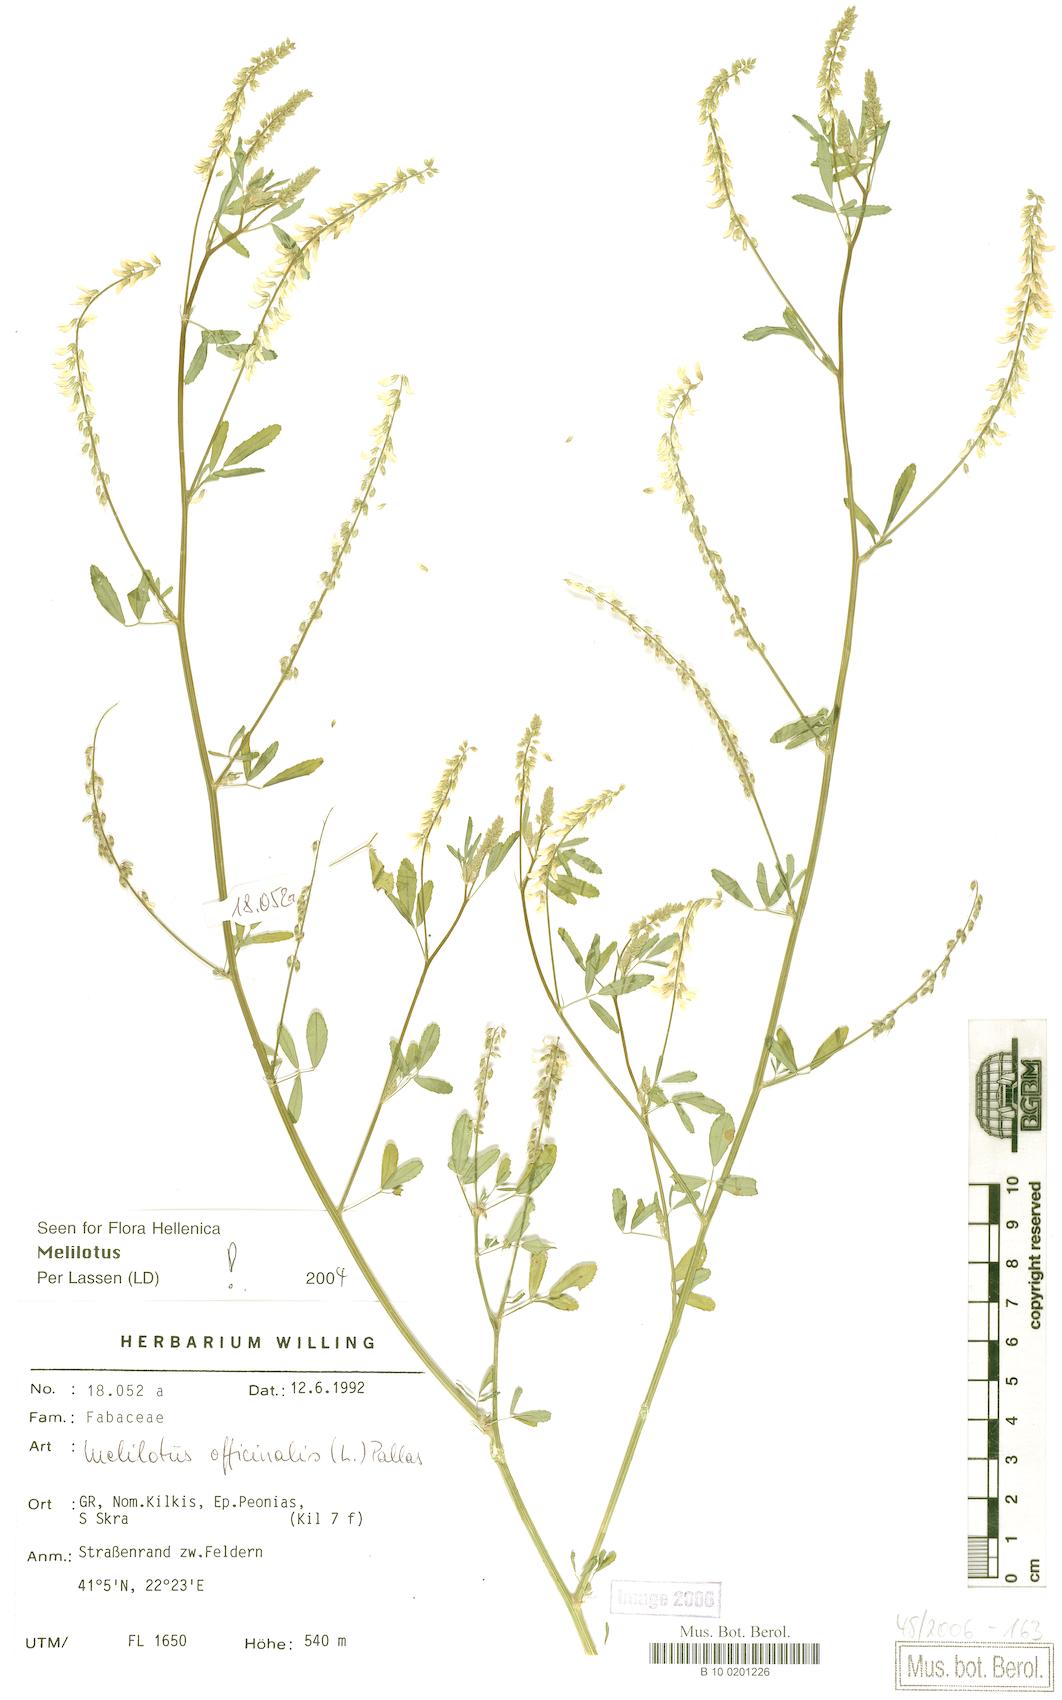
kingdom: Plantae
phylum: Tracheophyta
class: Magnoliopsida
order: Fabales
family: Fabaceae
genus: Melilotus
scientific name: Melilotus officinalis
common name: Sweetclover
